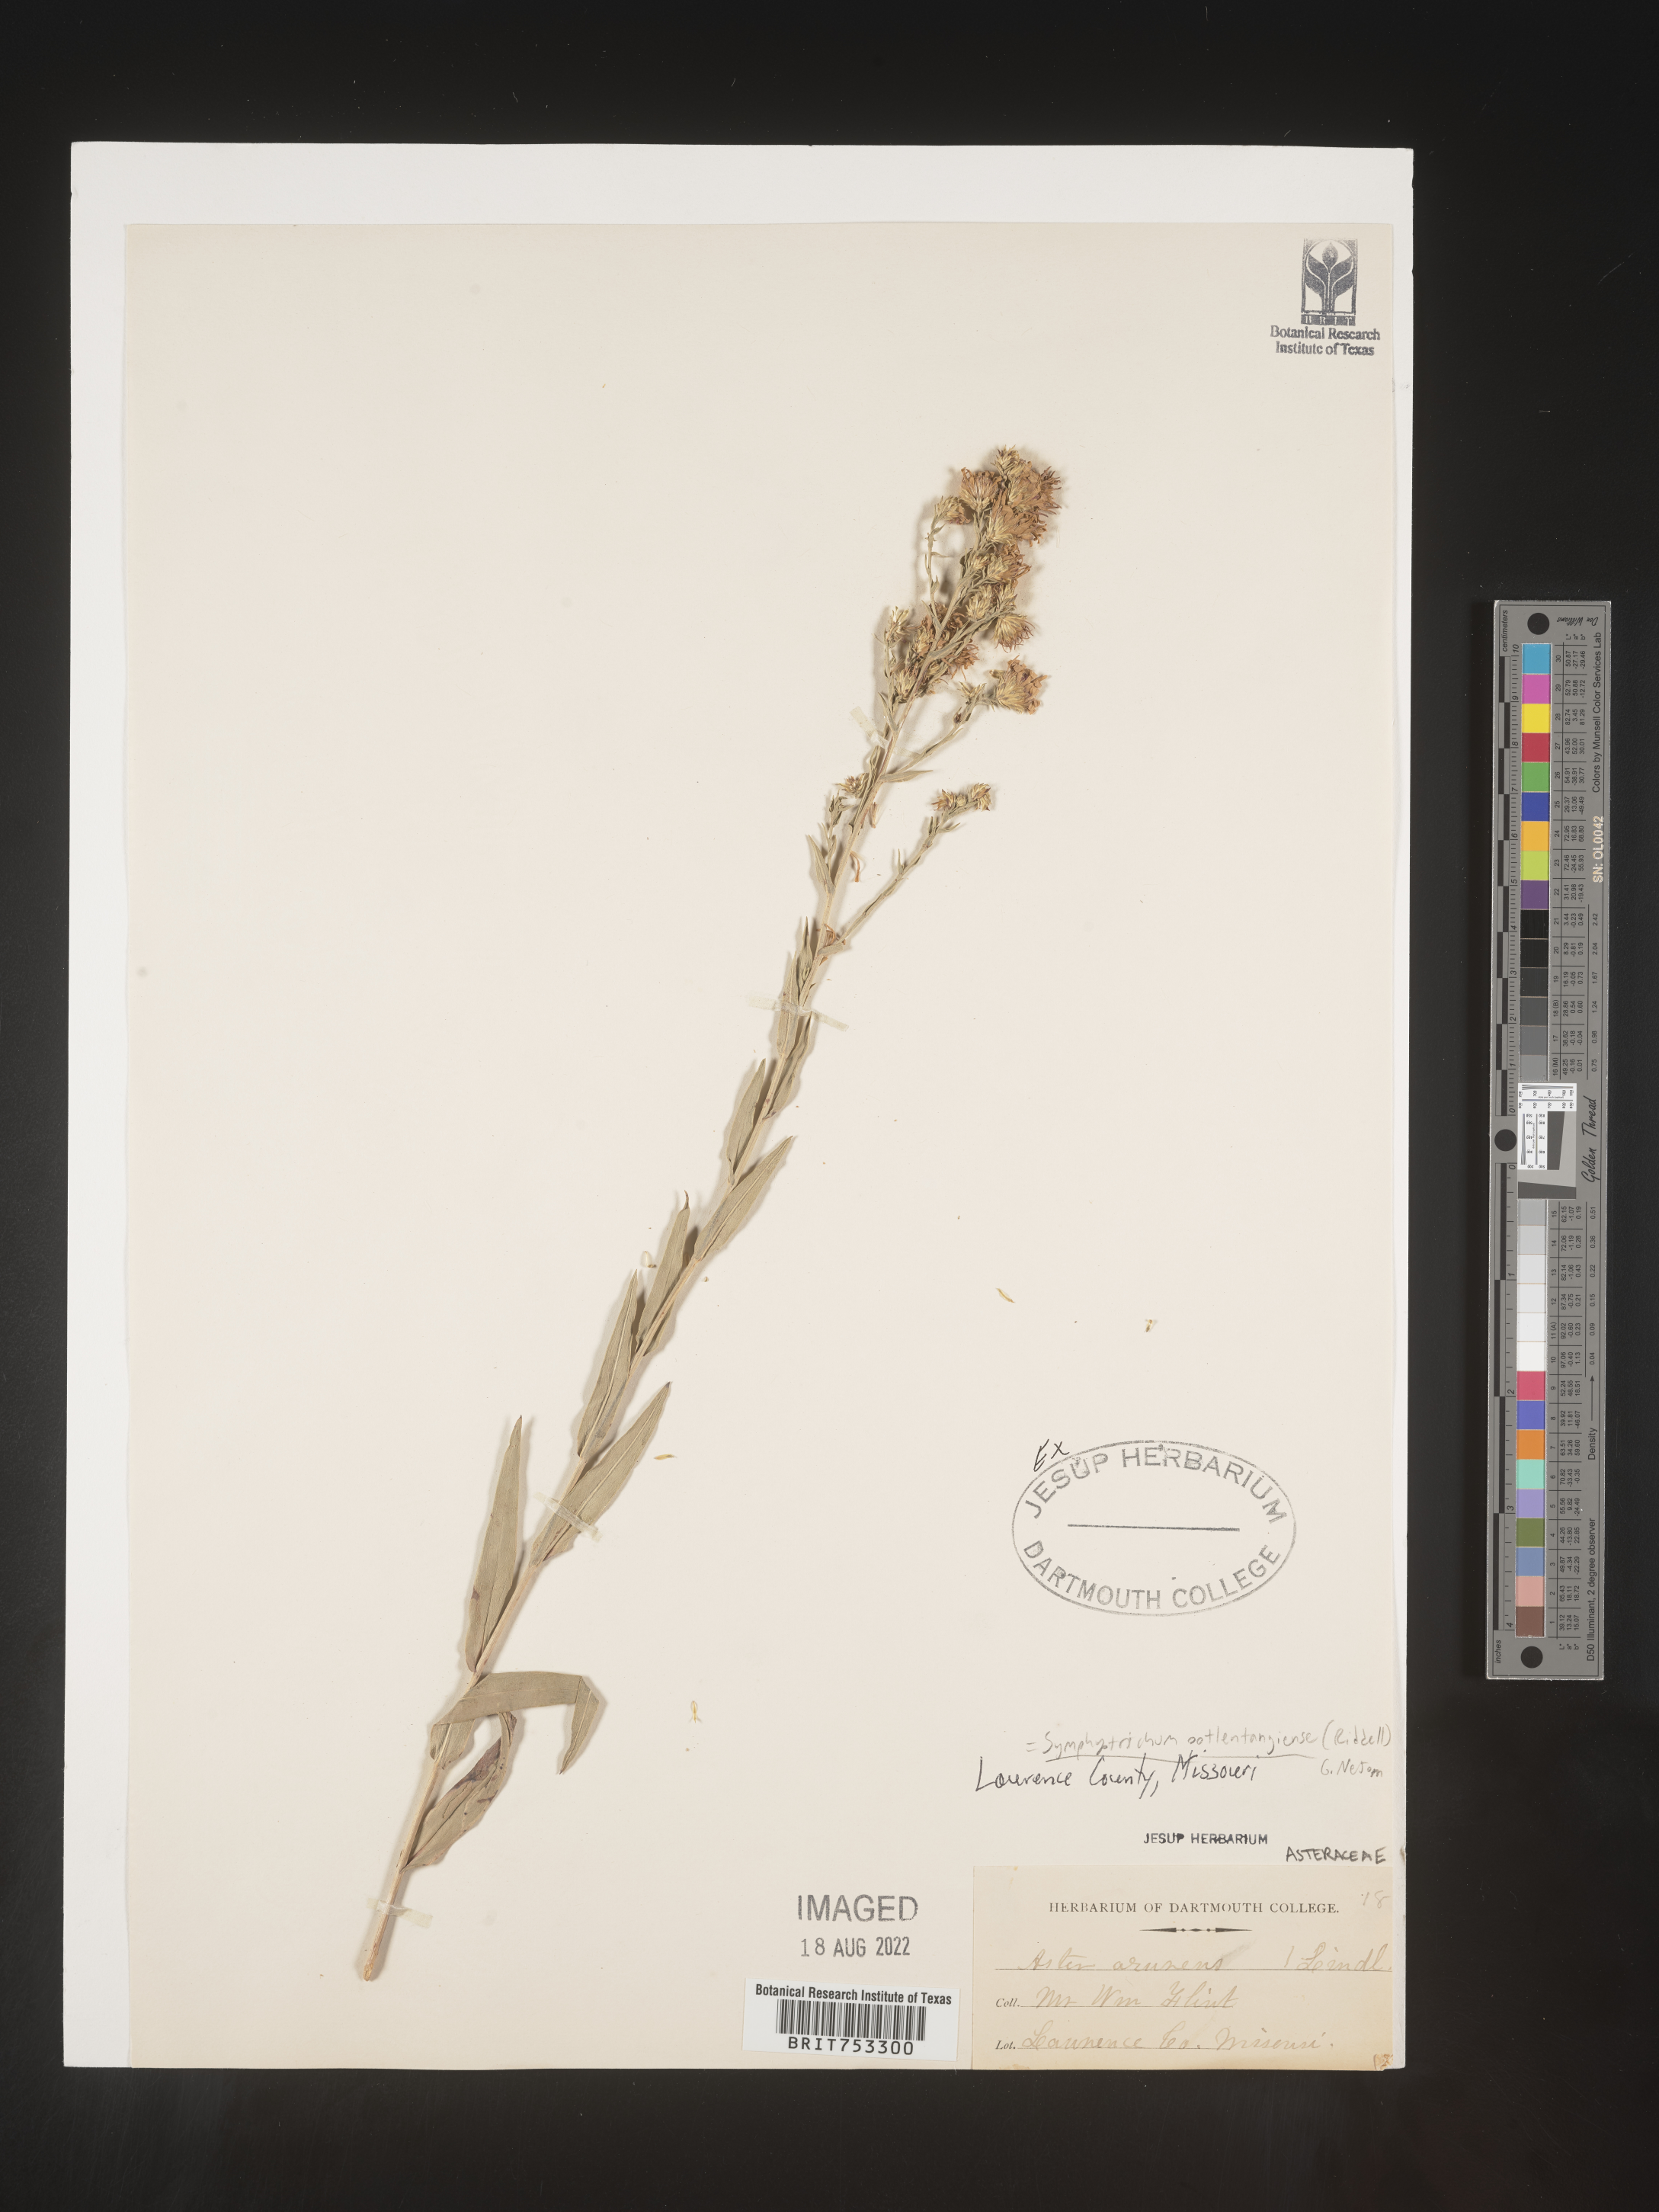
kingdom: Plantae
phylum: Tracheophyta
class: Magnoliopsida
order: Asterales
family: Asteraceae
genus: Symphyotrichum
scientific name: Symphyotrichum oolentangiense
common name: Azure aster
